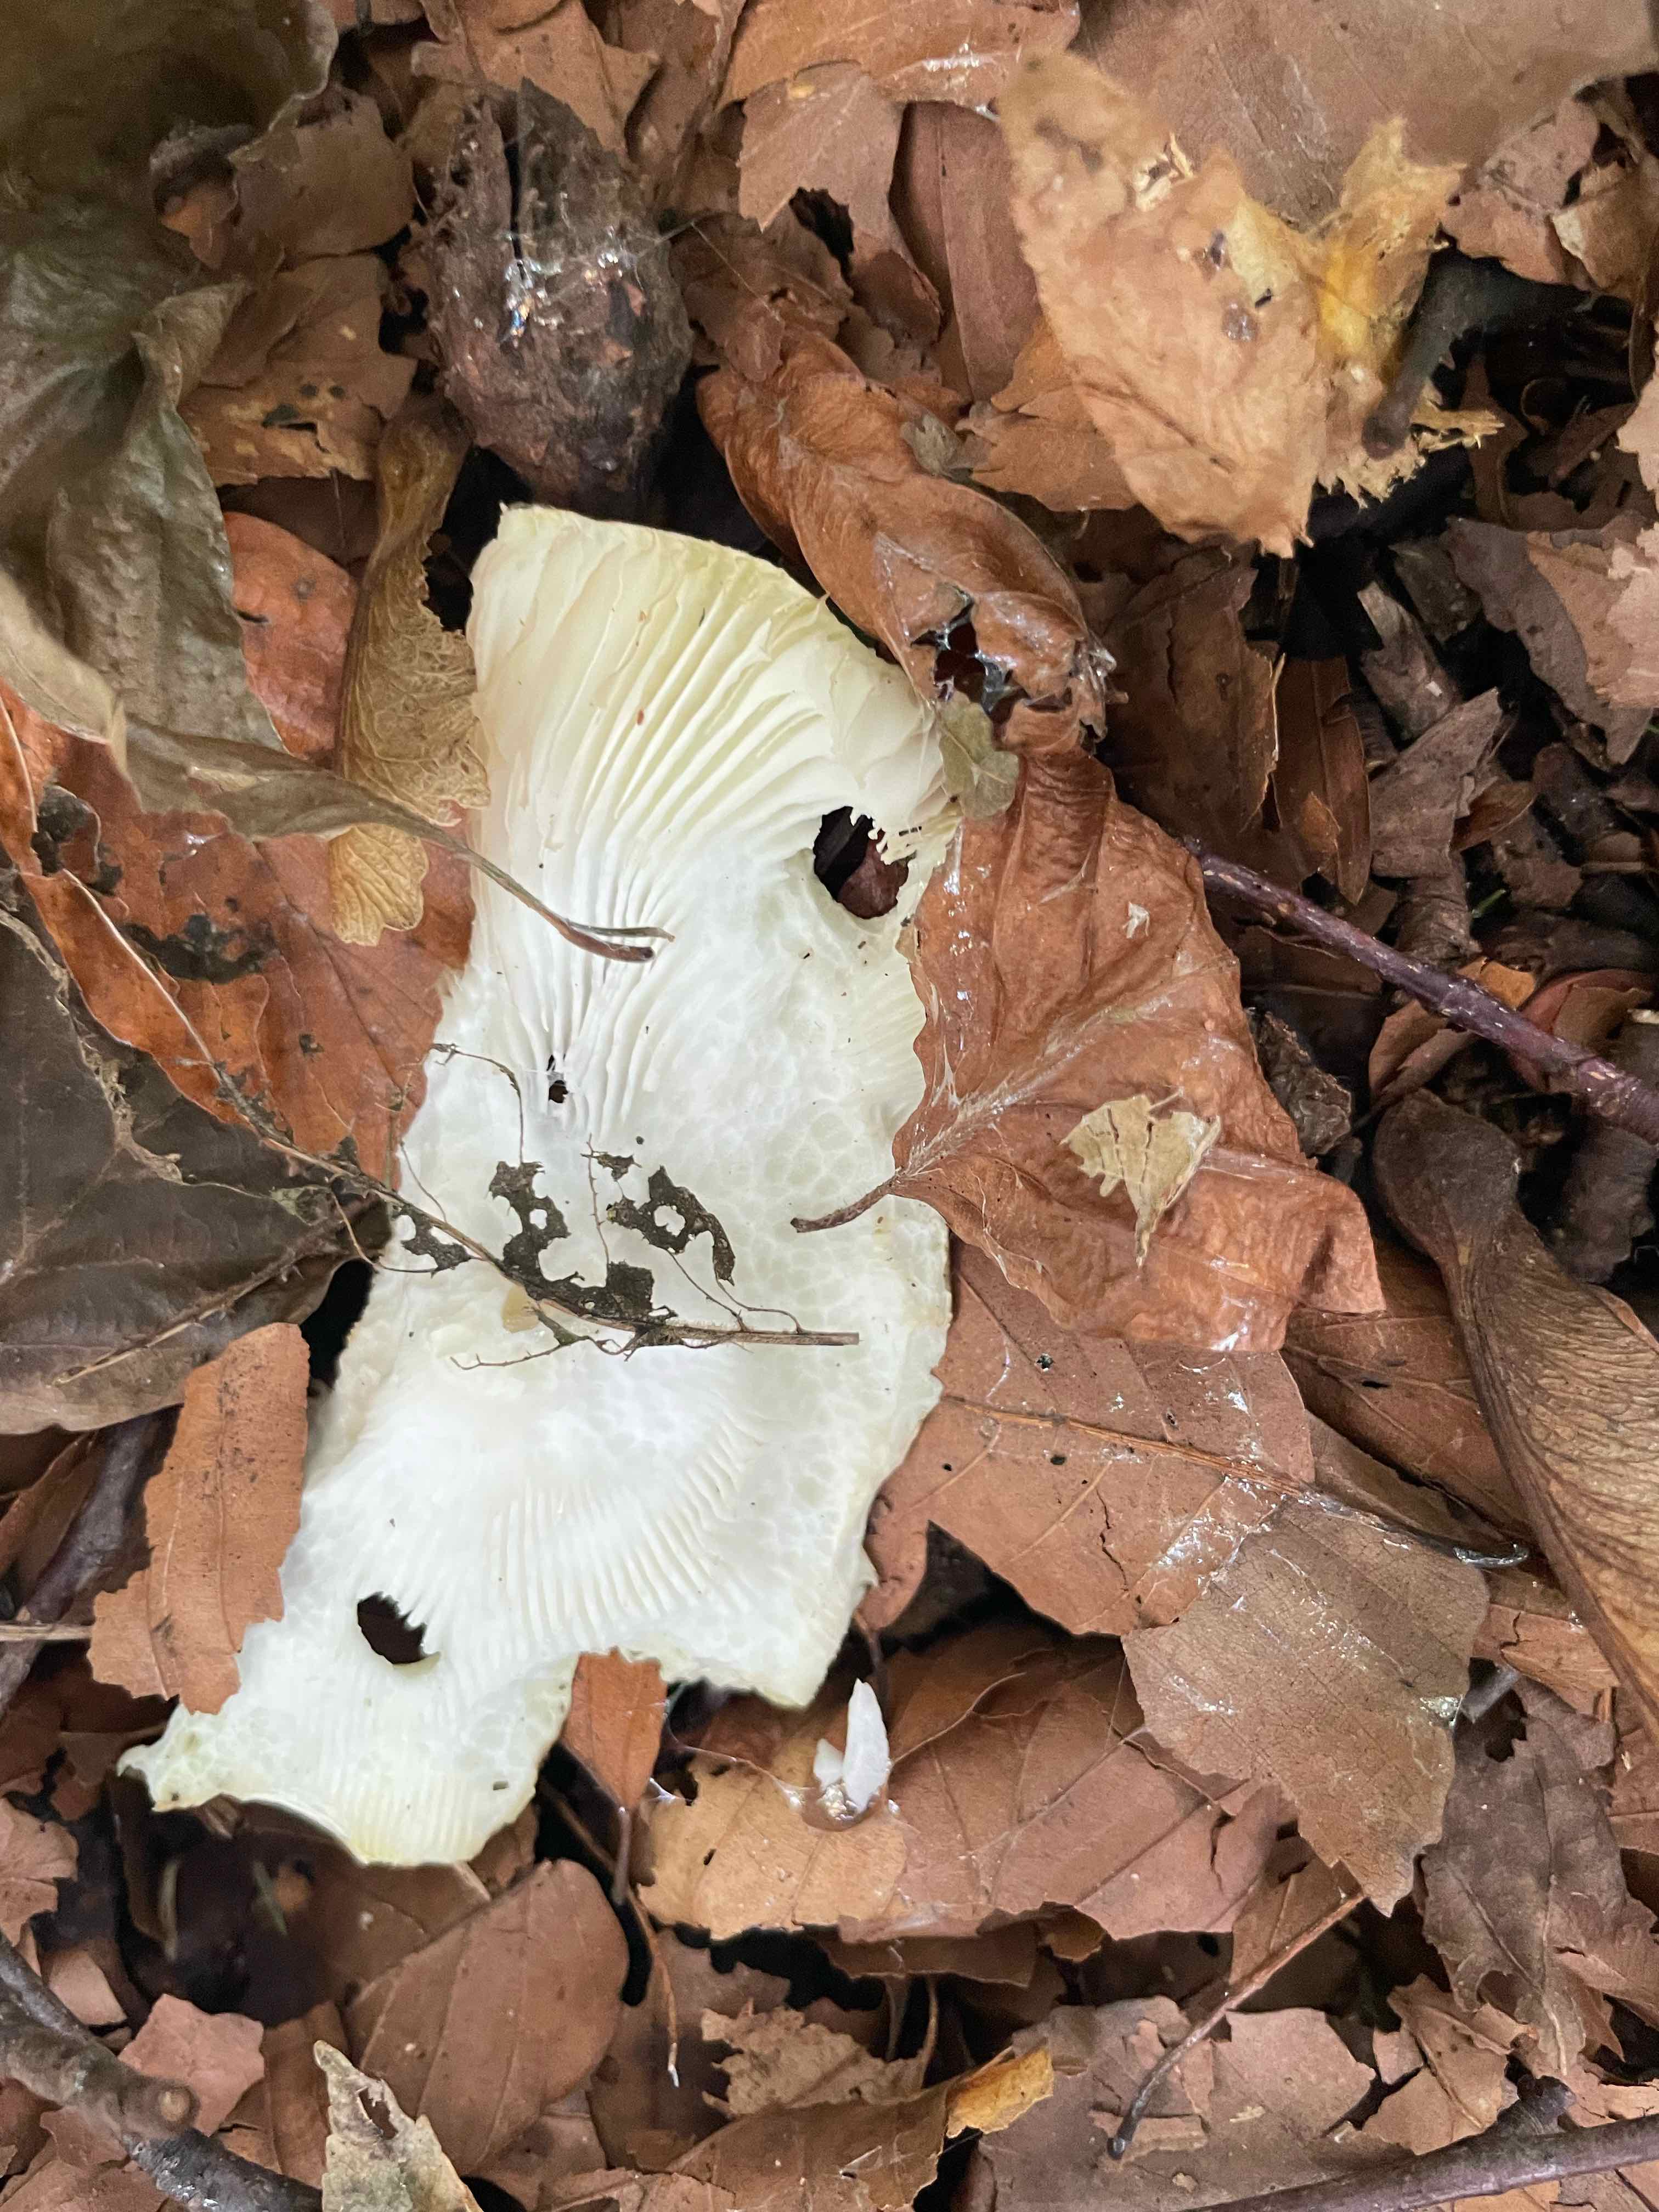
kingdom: Fungi
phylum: Basidiomycota
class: Agaricomycetes
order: Agaricales
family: Amanitaceae
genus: Amanita
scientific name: Amanita phalloides
